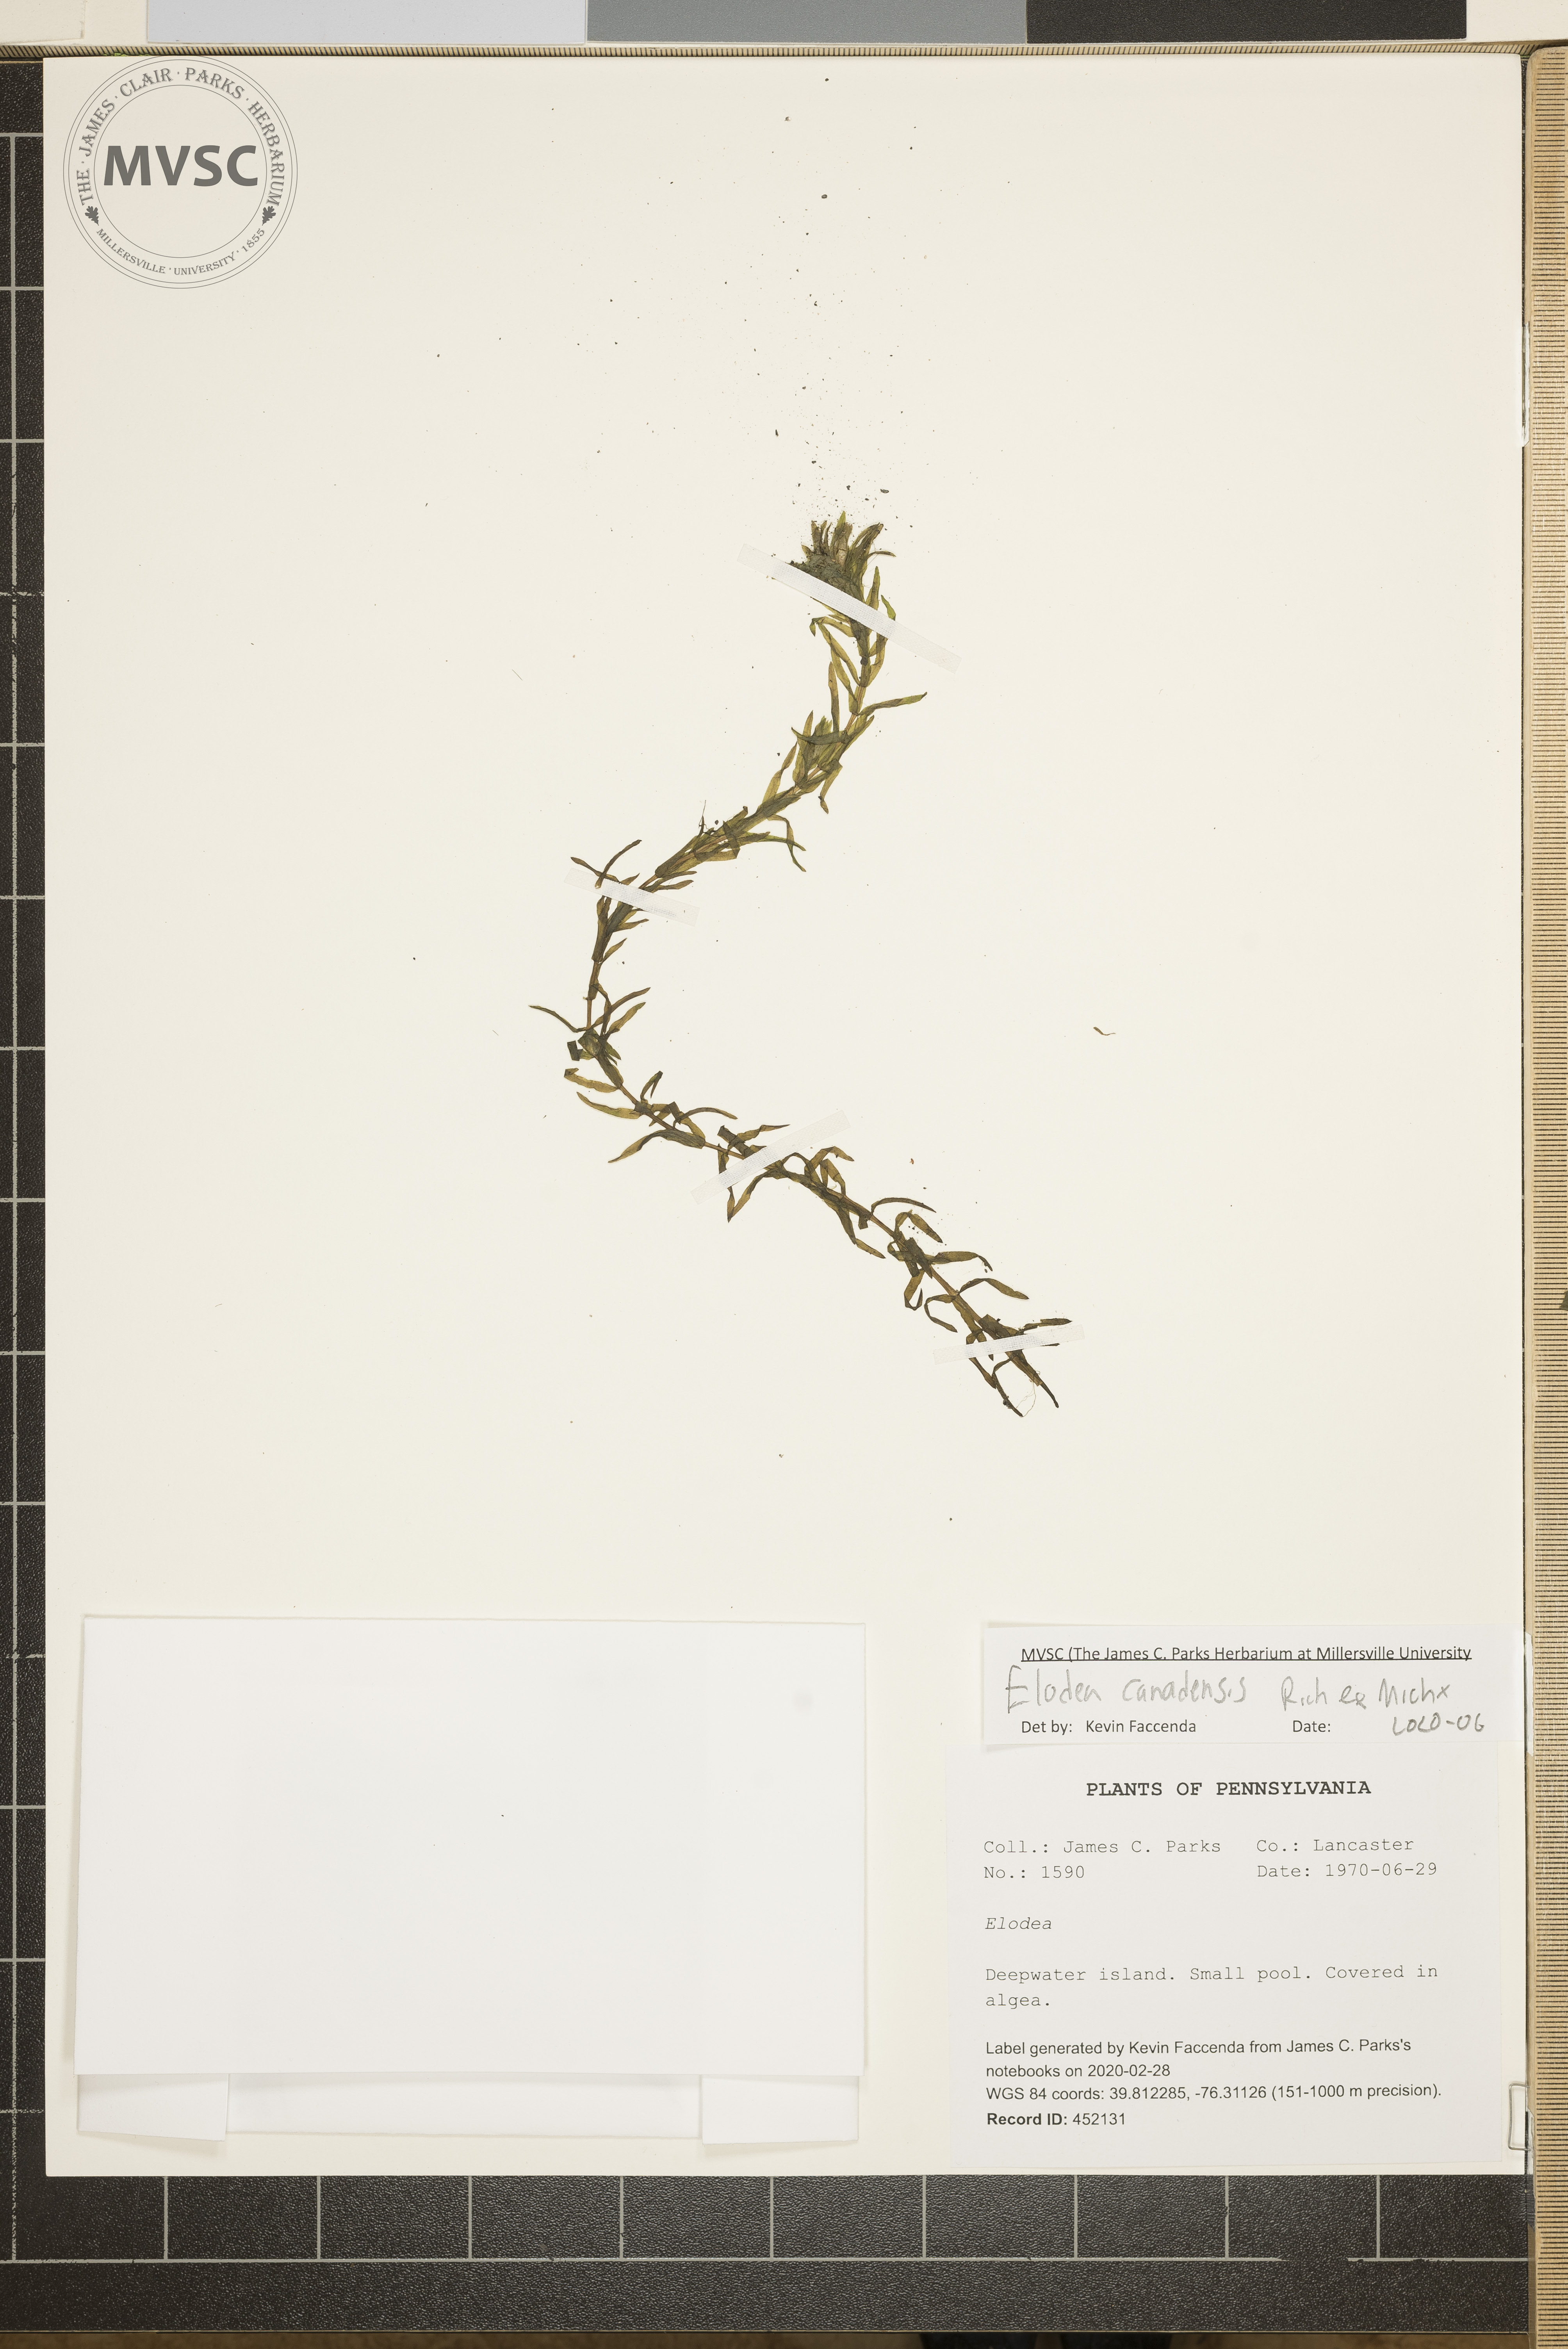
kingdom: Plantae
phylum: Tracheophyta
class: Liliopsida
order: Alismatales
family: Hydrocharitaceae
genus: Elodea
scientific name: Elodea canadensis
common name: Canadian waterweed
